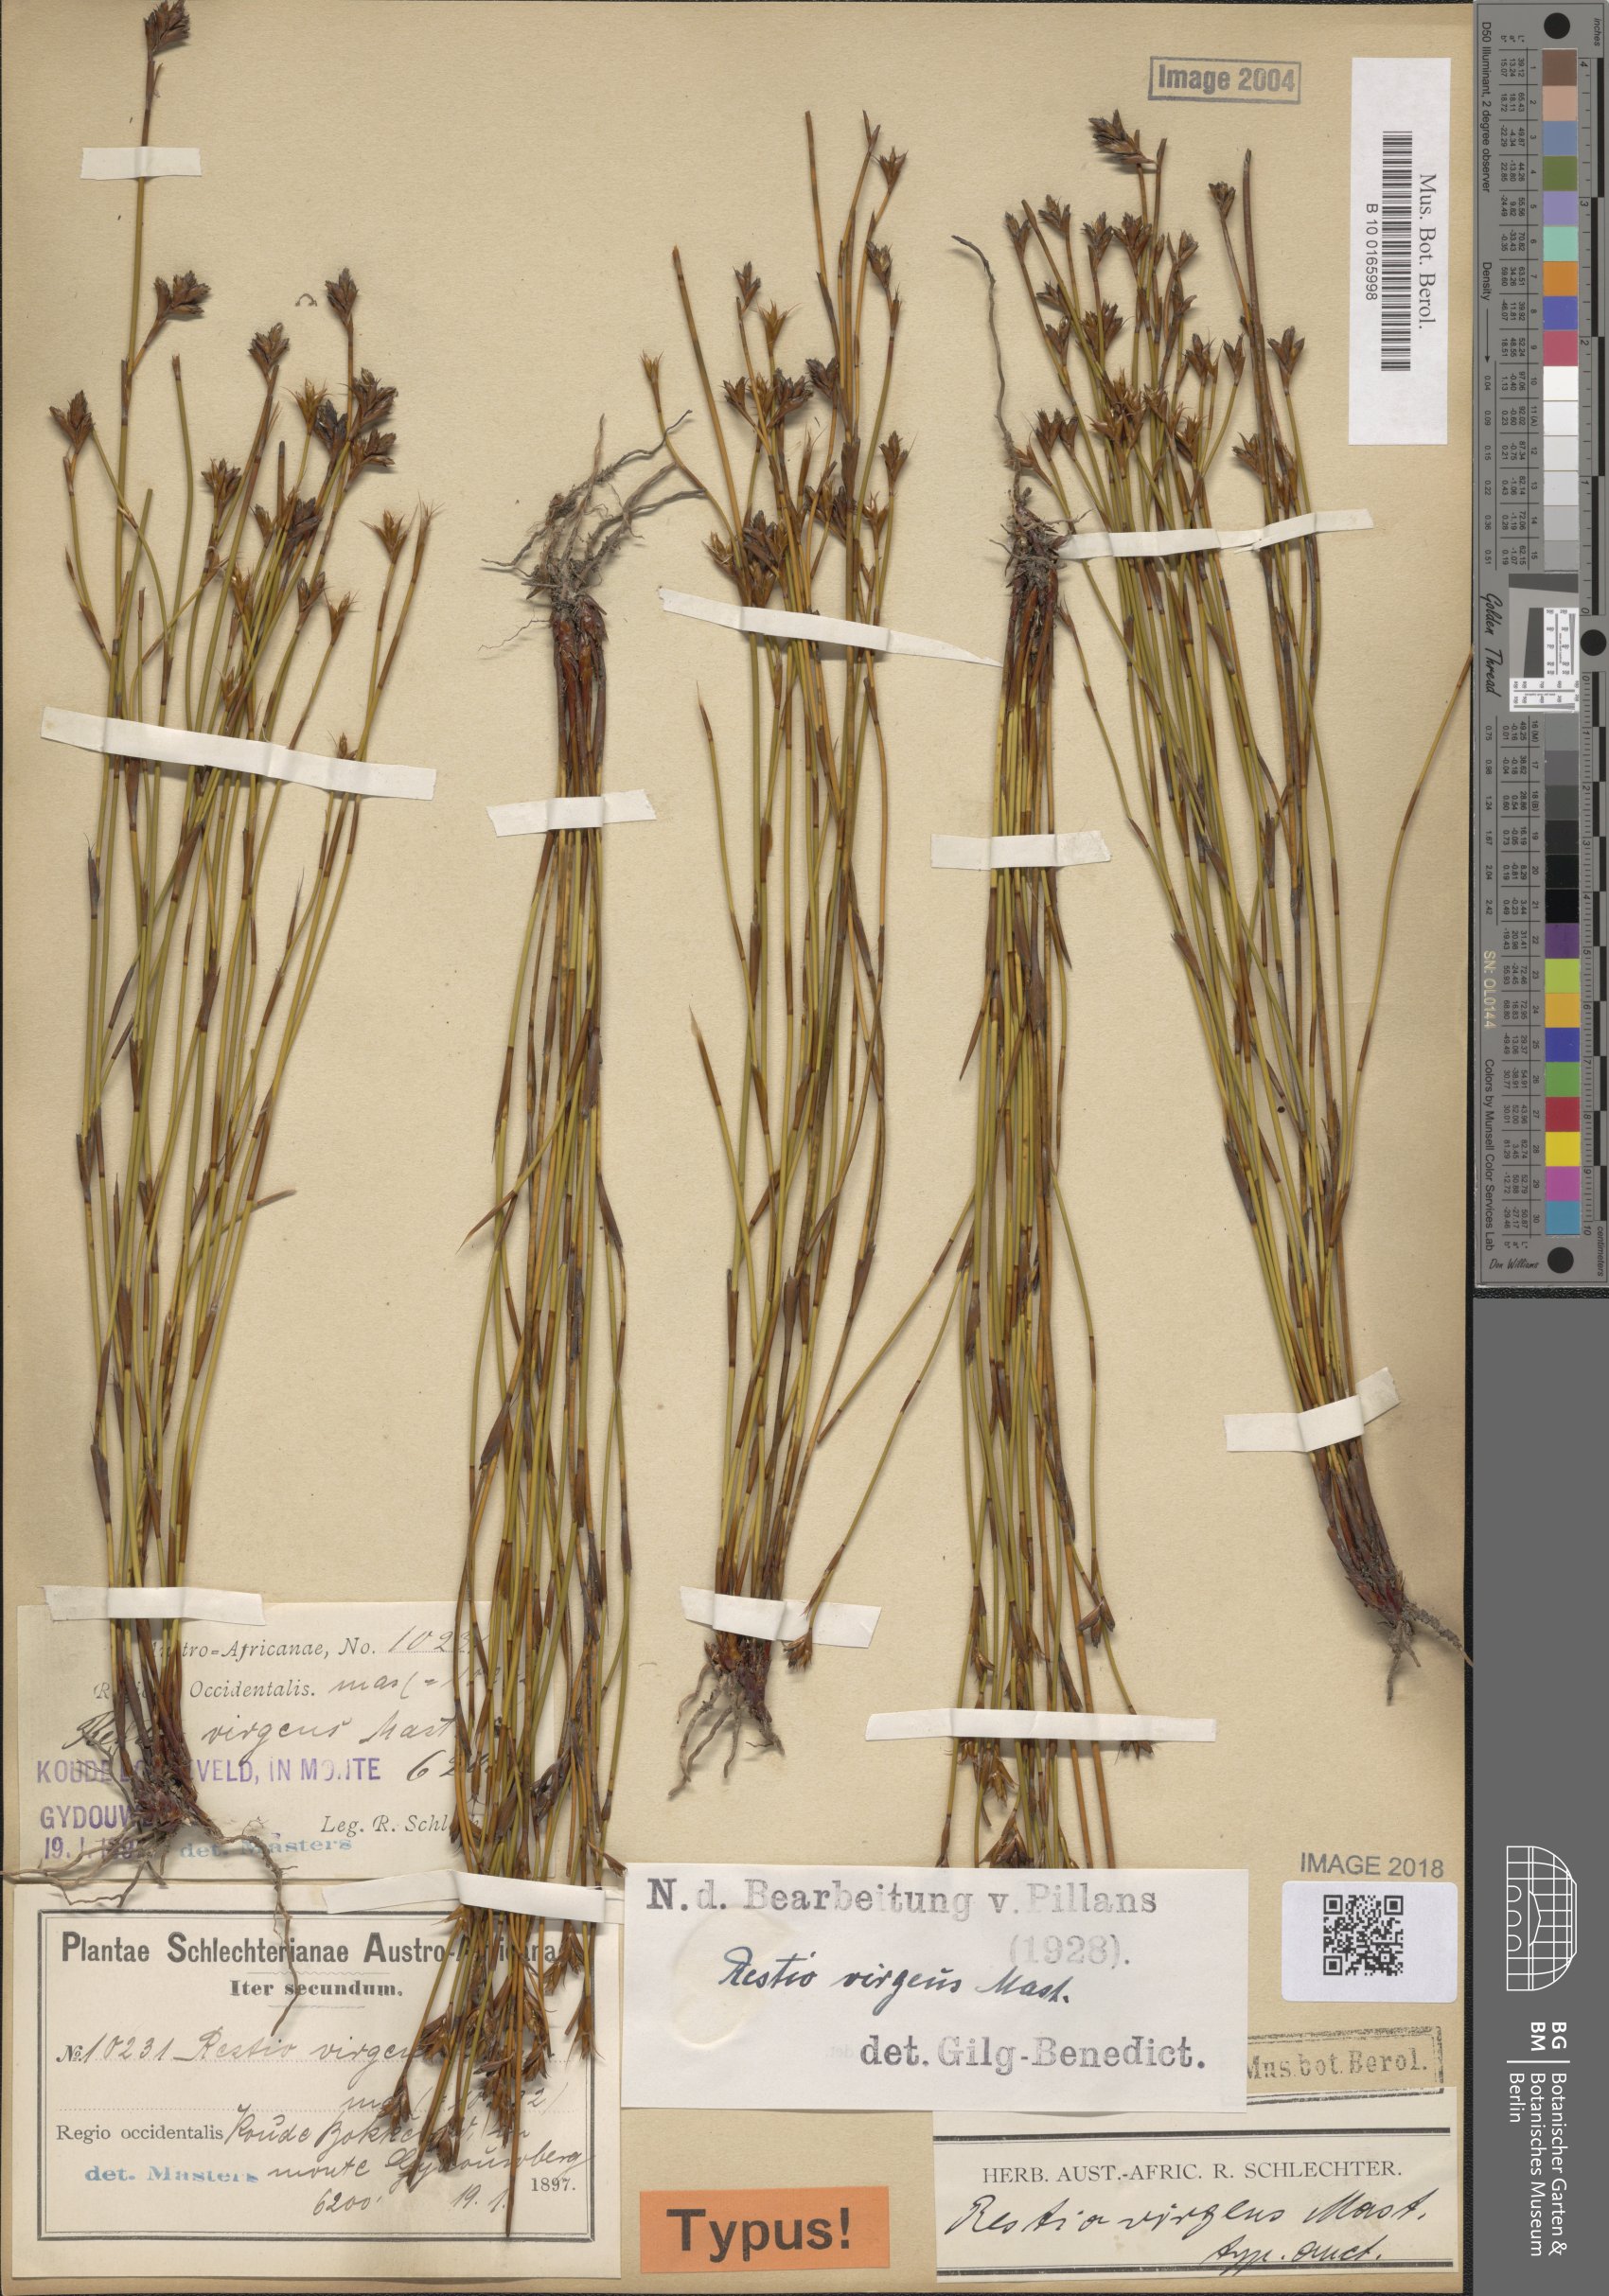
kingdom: Plantae
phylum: Tracheophyta
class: Liliopsida
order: Poales
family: Restionaceae
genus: Restio
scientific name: Restio virgeus
